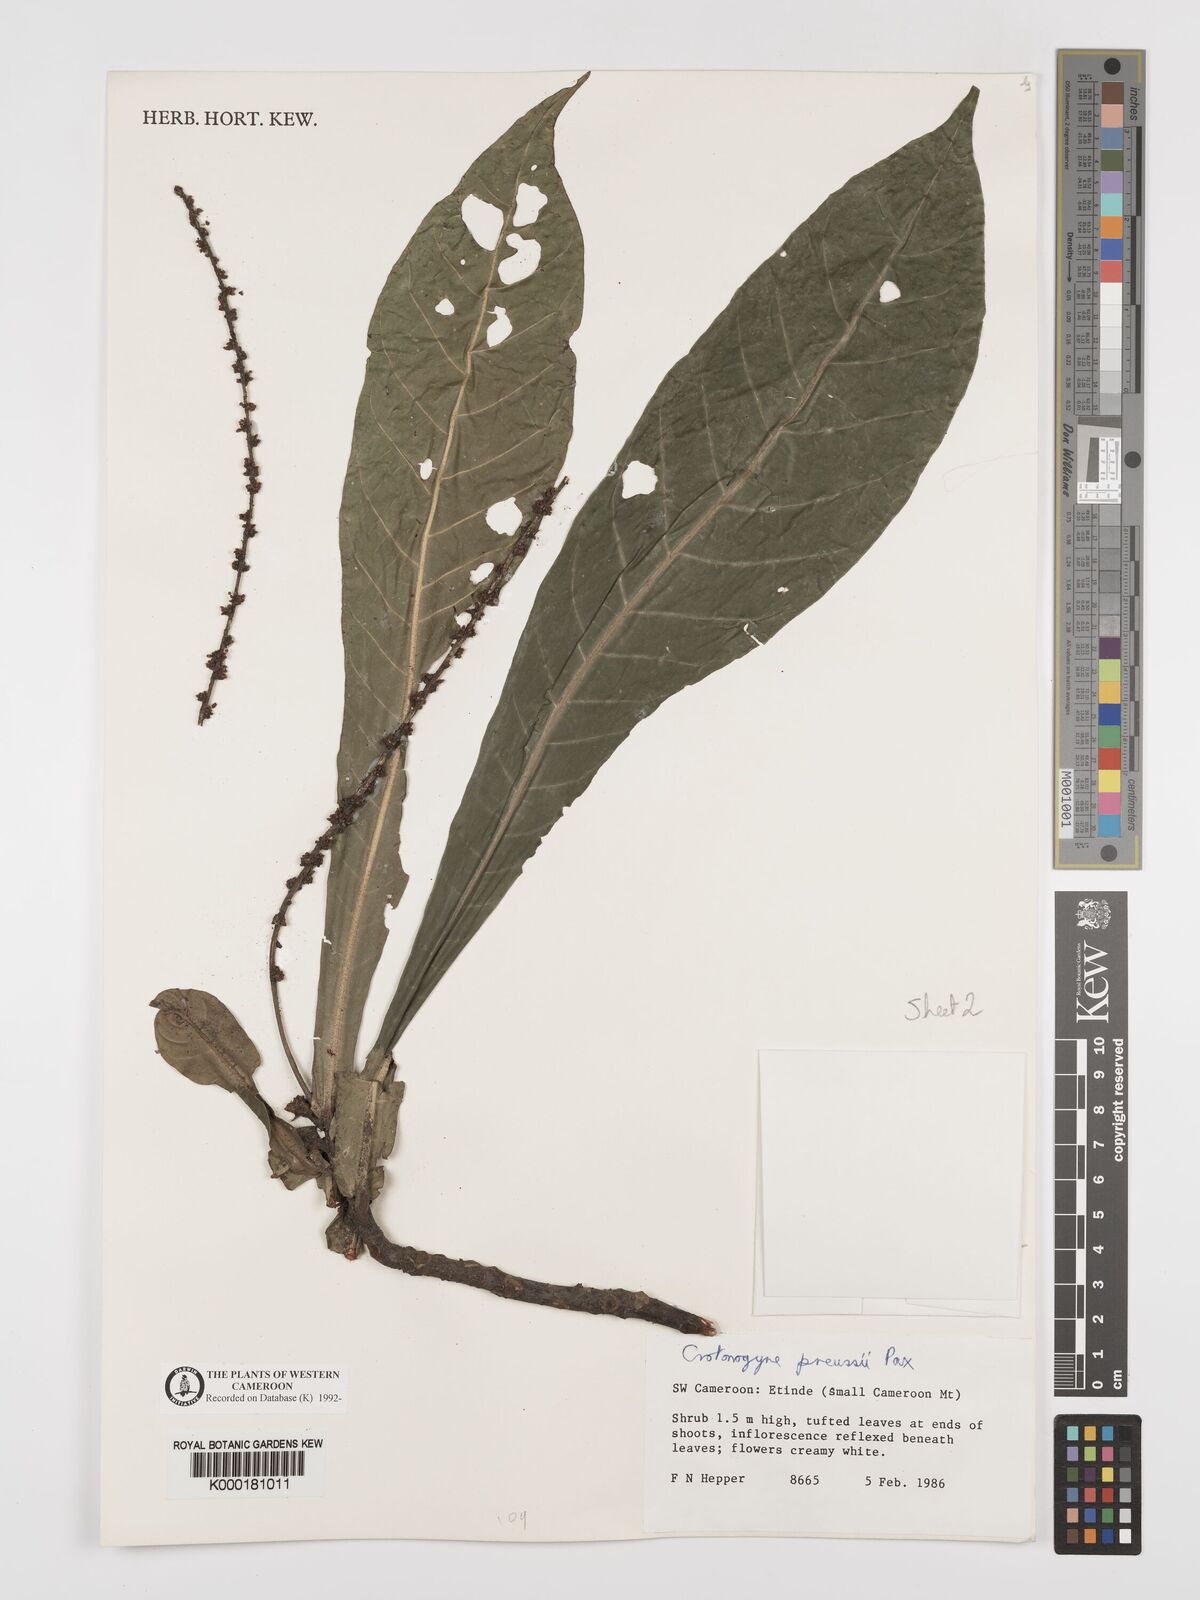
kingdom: Plantae
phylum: Tracheophyta
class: Magnoliopsida
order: Malpighiales
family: Euphorbiaceae
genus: Crotonogyne
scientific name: Crotonogyne preussii
